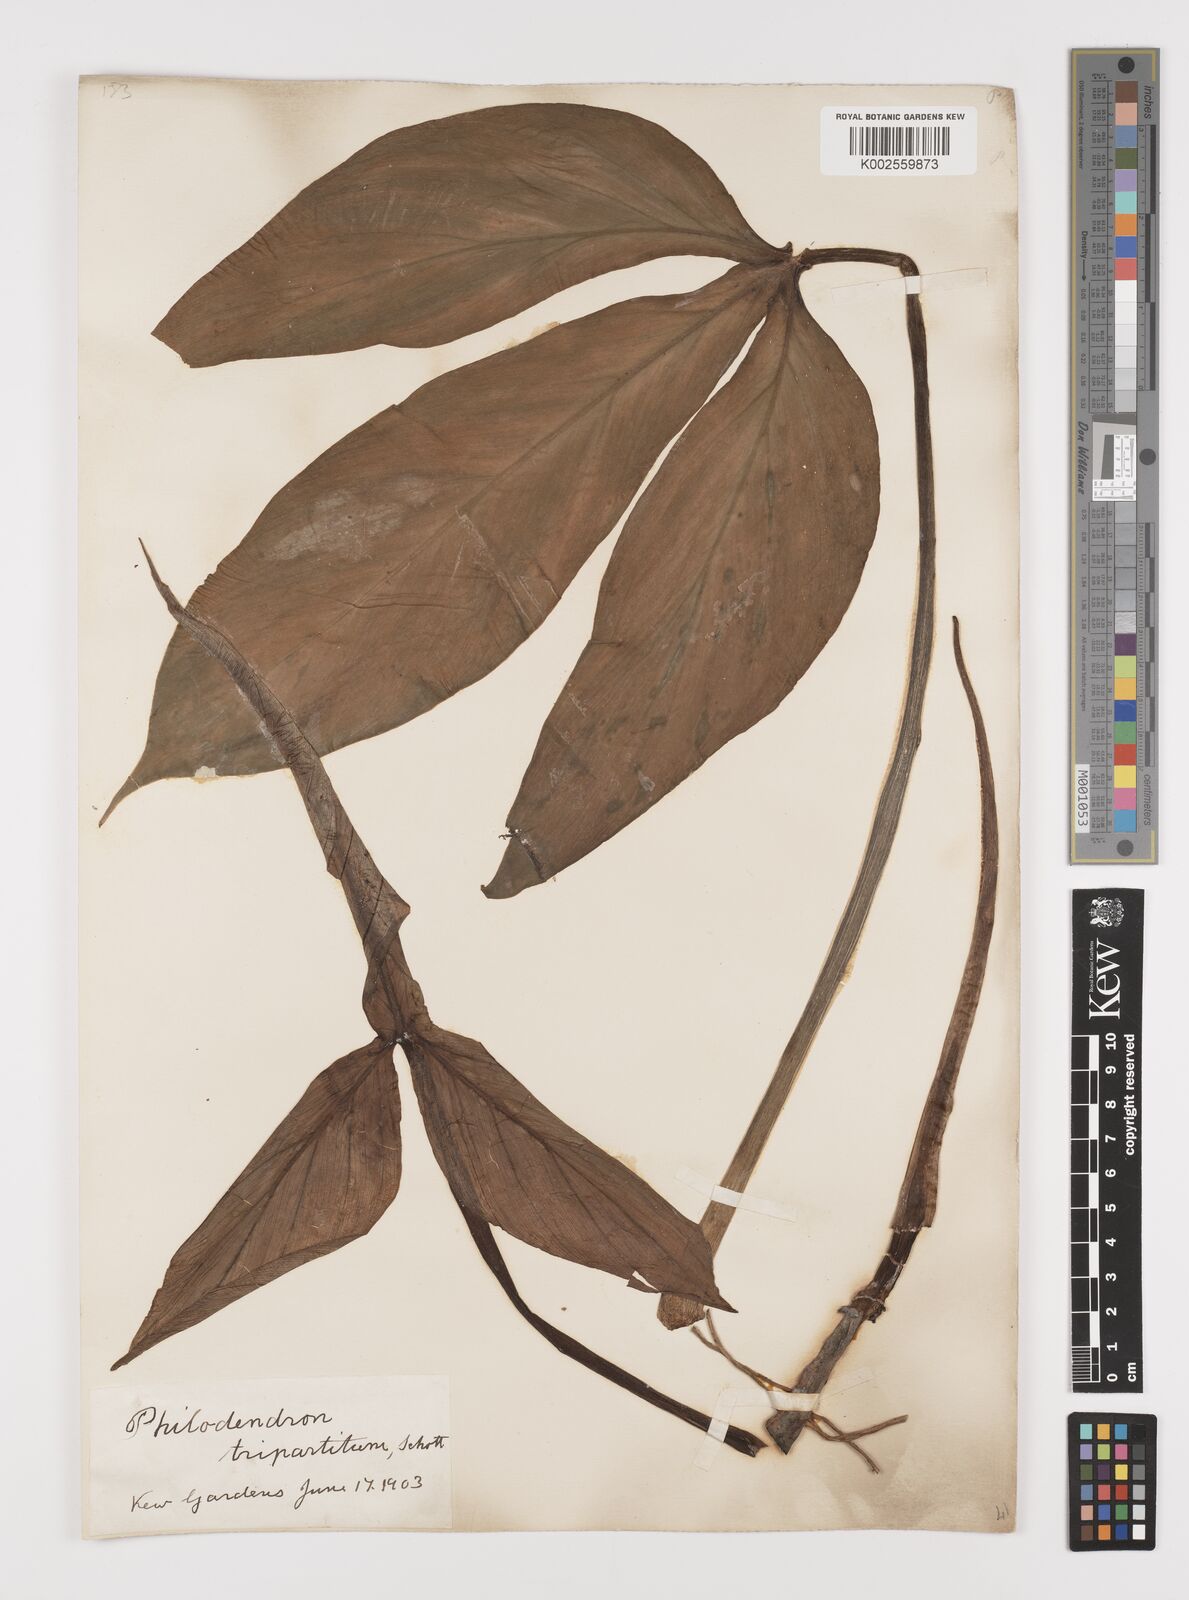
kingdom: Plantae
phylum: Tracheophyta
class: Liliopsida
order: Alismatales
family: Araceae
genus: Philodendron
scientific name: Philodendron tripartitum
